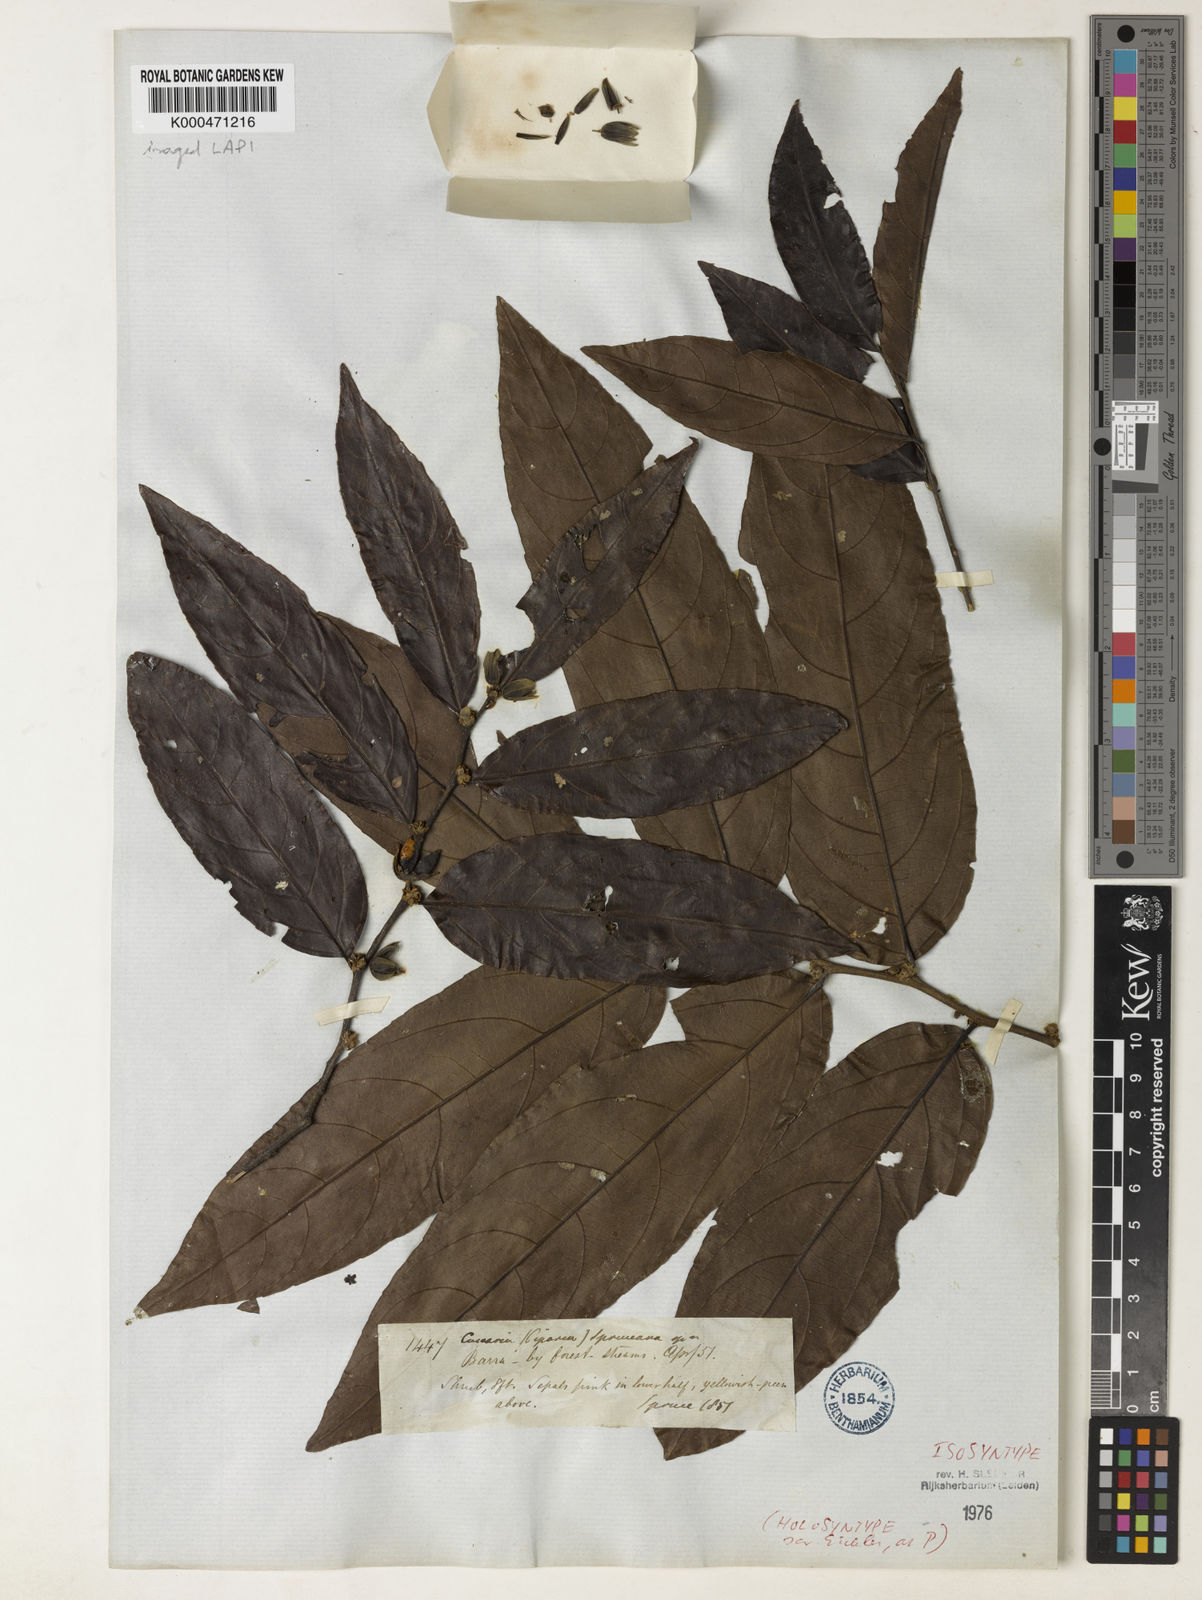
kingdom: Plantae
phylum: Tracheophyta
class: Magnoliopsida
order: Malpighiales
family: Salicaceae
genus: Piparea
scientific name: Piparea spruceana
